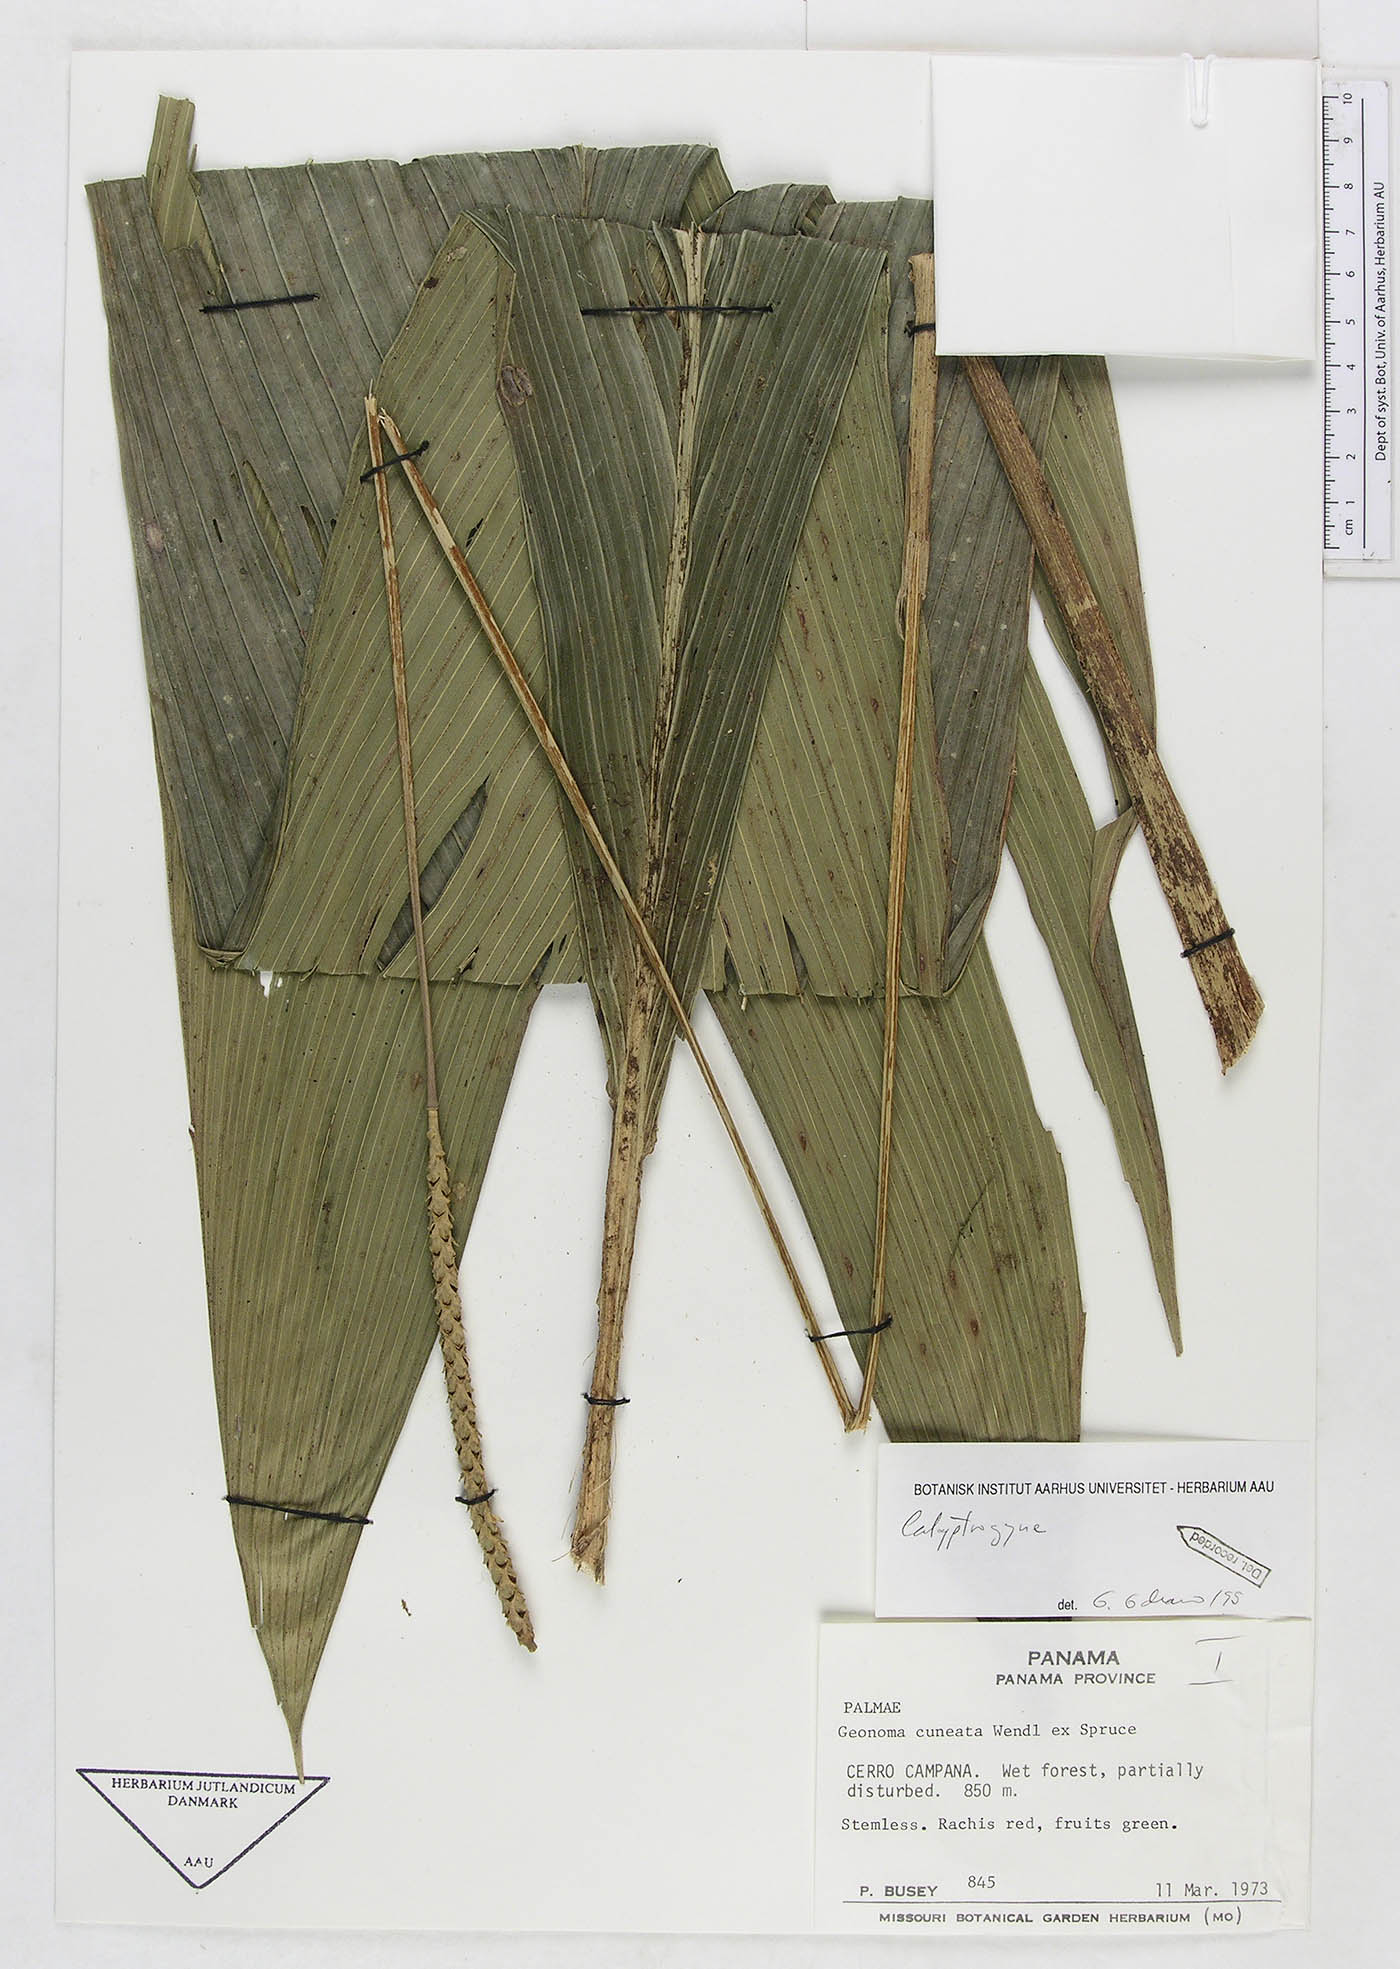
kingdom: Plantae
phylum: Tracheophyta
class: Liliopsida
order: Arecales
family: Arecaceae
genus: Calyptrogyne
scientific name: Calyptrogyne
